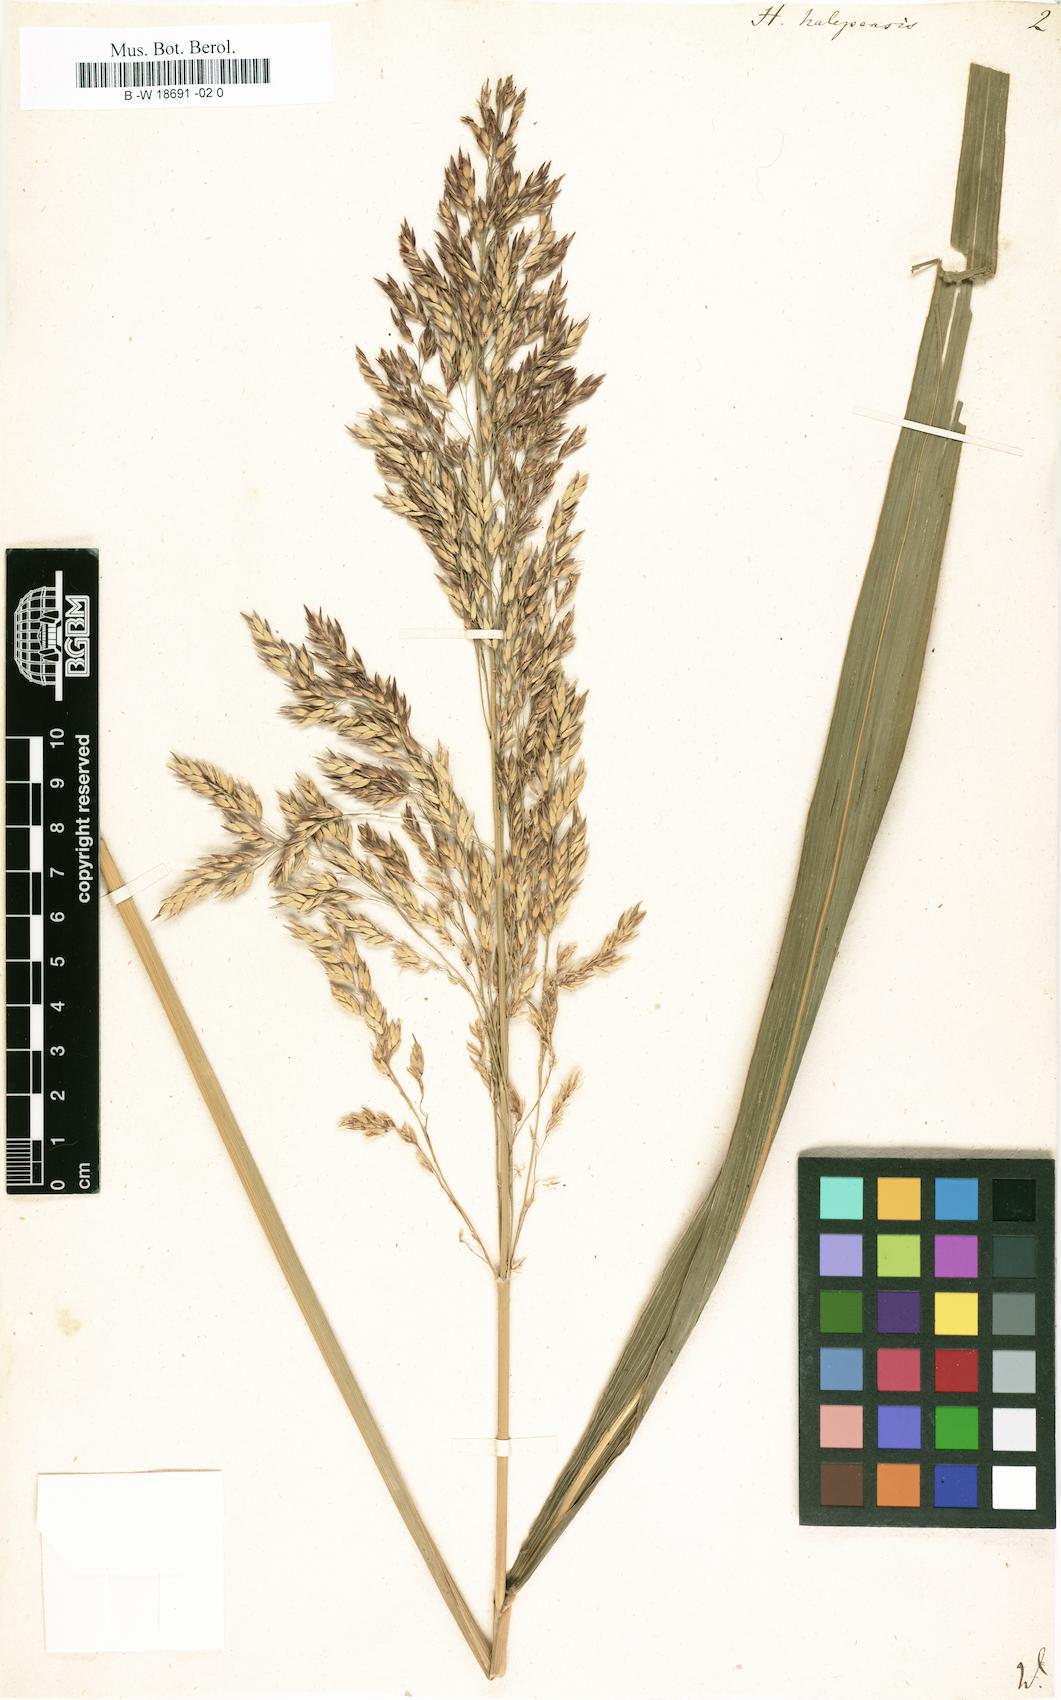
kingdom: Plantae
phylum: Tracheophyta
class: Liliopsida
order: Poales
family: Poaceae
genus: Sorghum
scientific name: Sorghum halepense
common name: Johnson-grass
